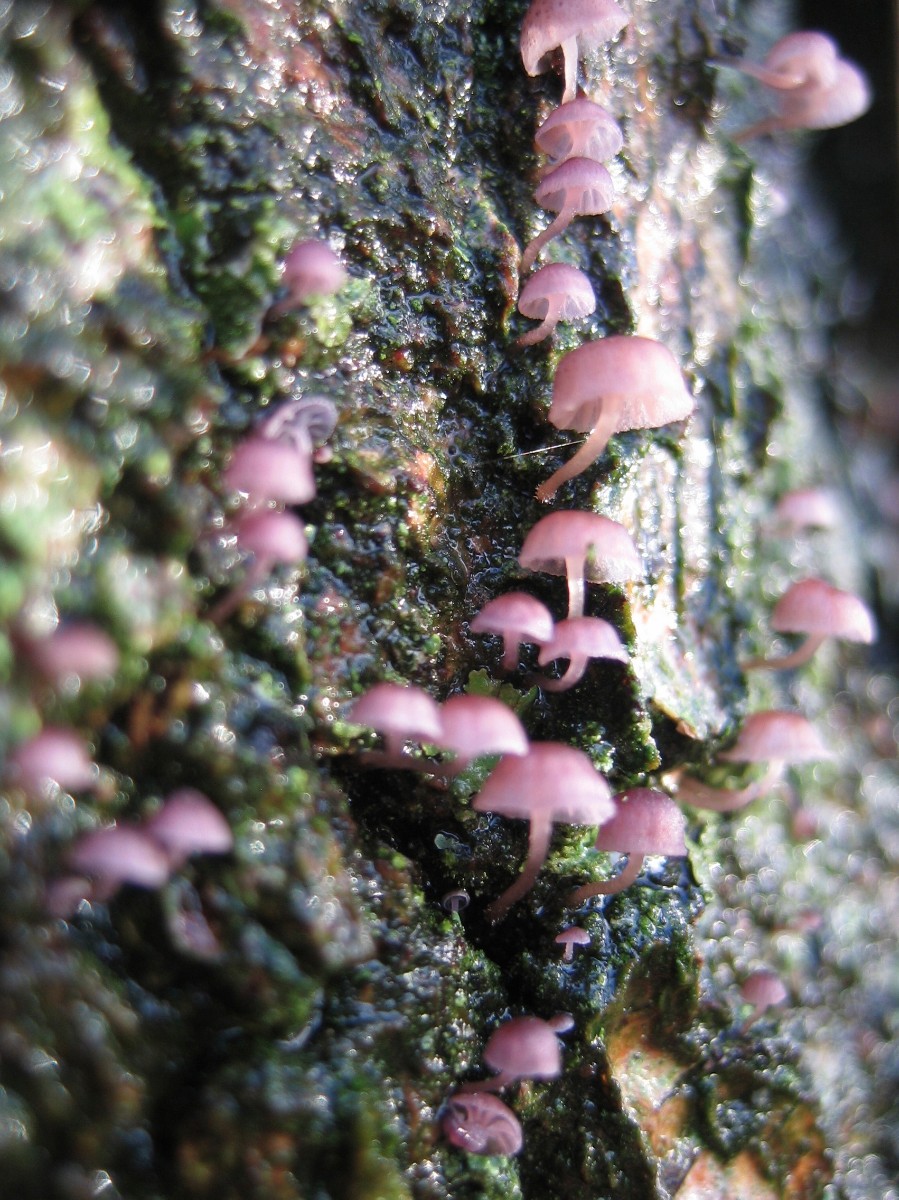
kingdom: Fungi
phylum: Basidiomycota
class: Agaricomycetes
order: Agaricales
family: Mycenaceae
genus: Mycena
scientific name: Mycena meliigena
